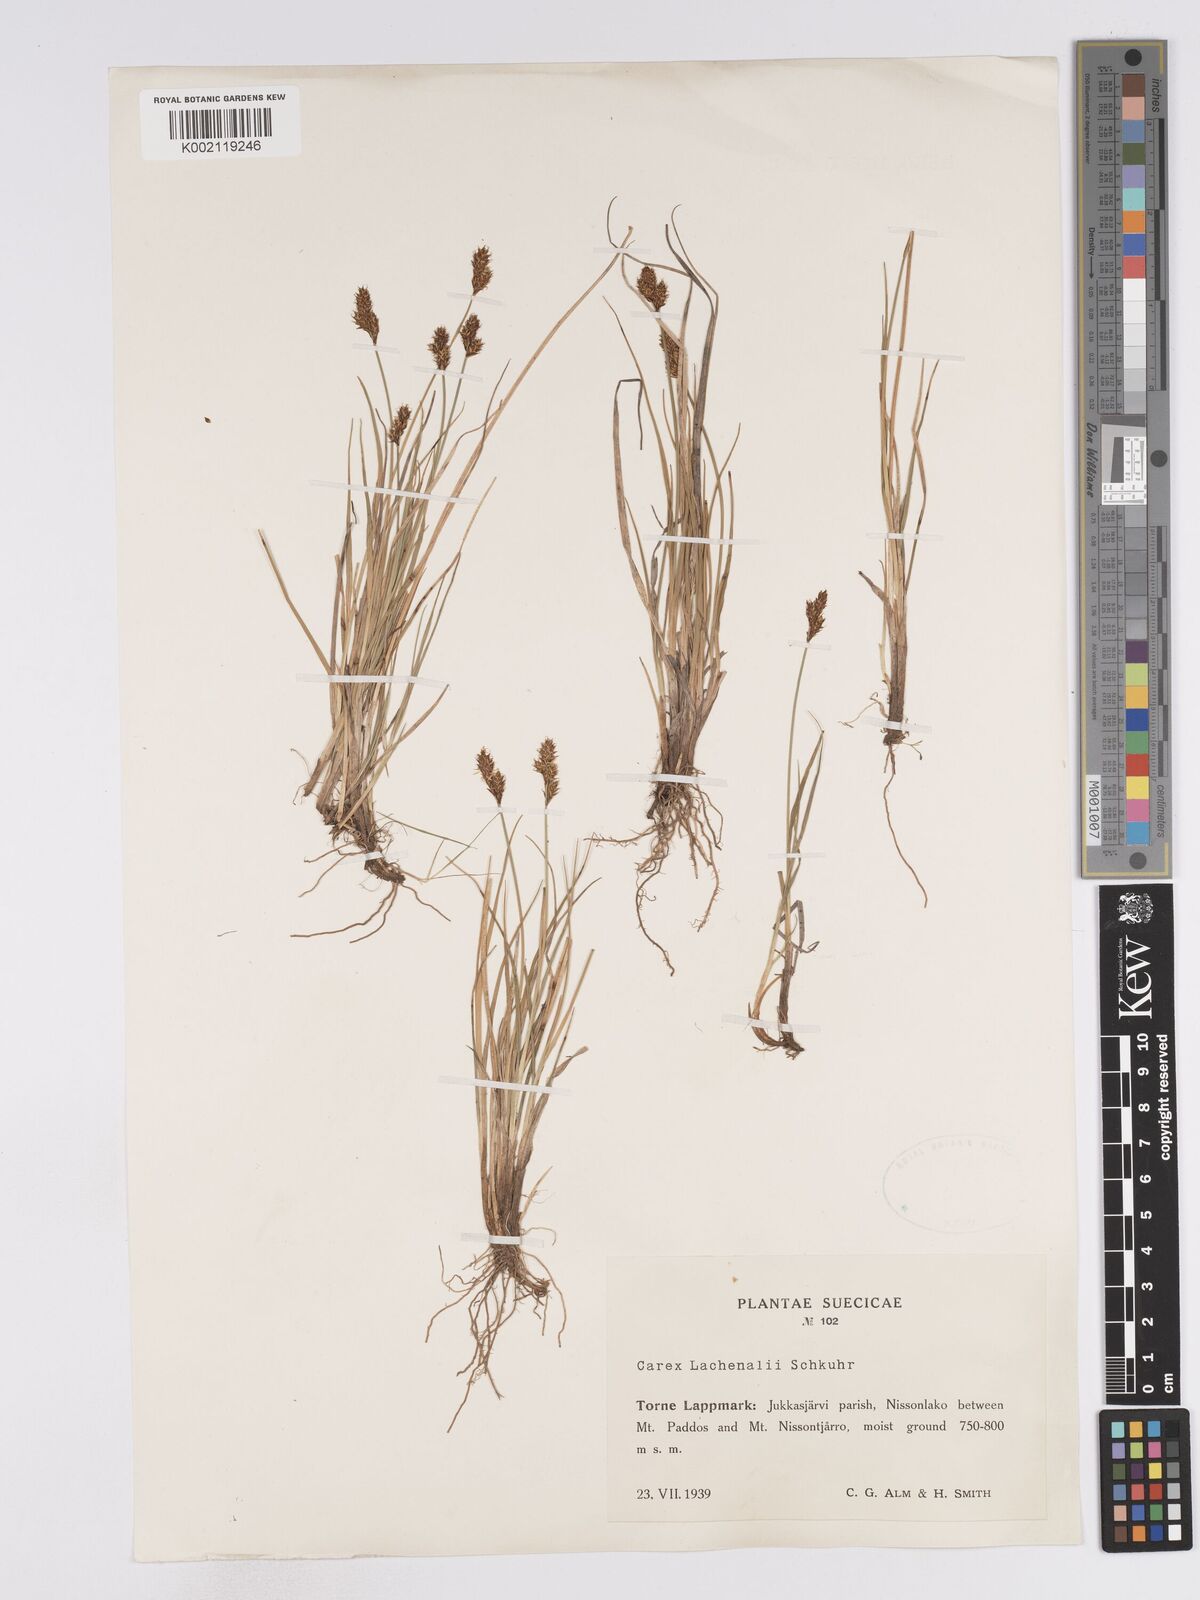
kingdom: Plantae
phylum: Tracheophyta
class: Liliopsida
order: Poales
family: Cyperaceae
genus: Carex
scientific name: Carex lachenalii
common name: Hare's-foot sedge
